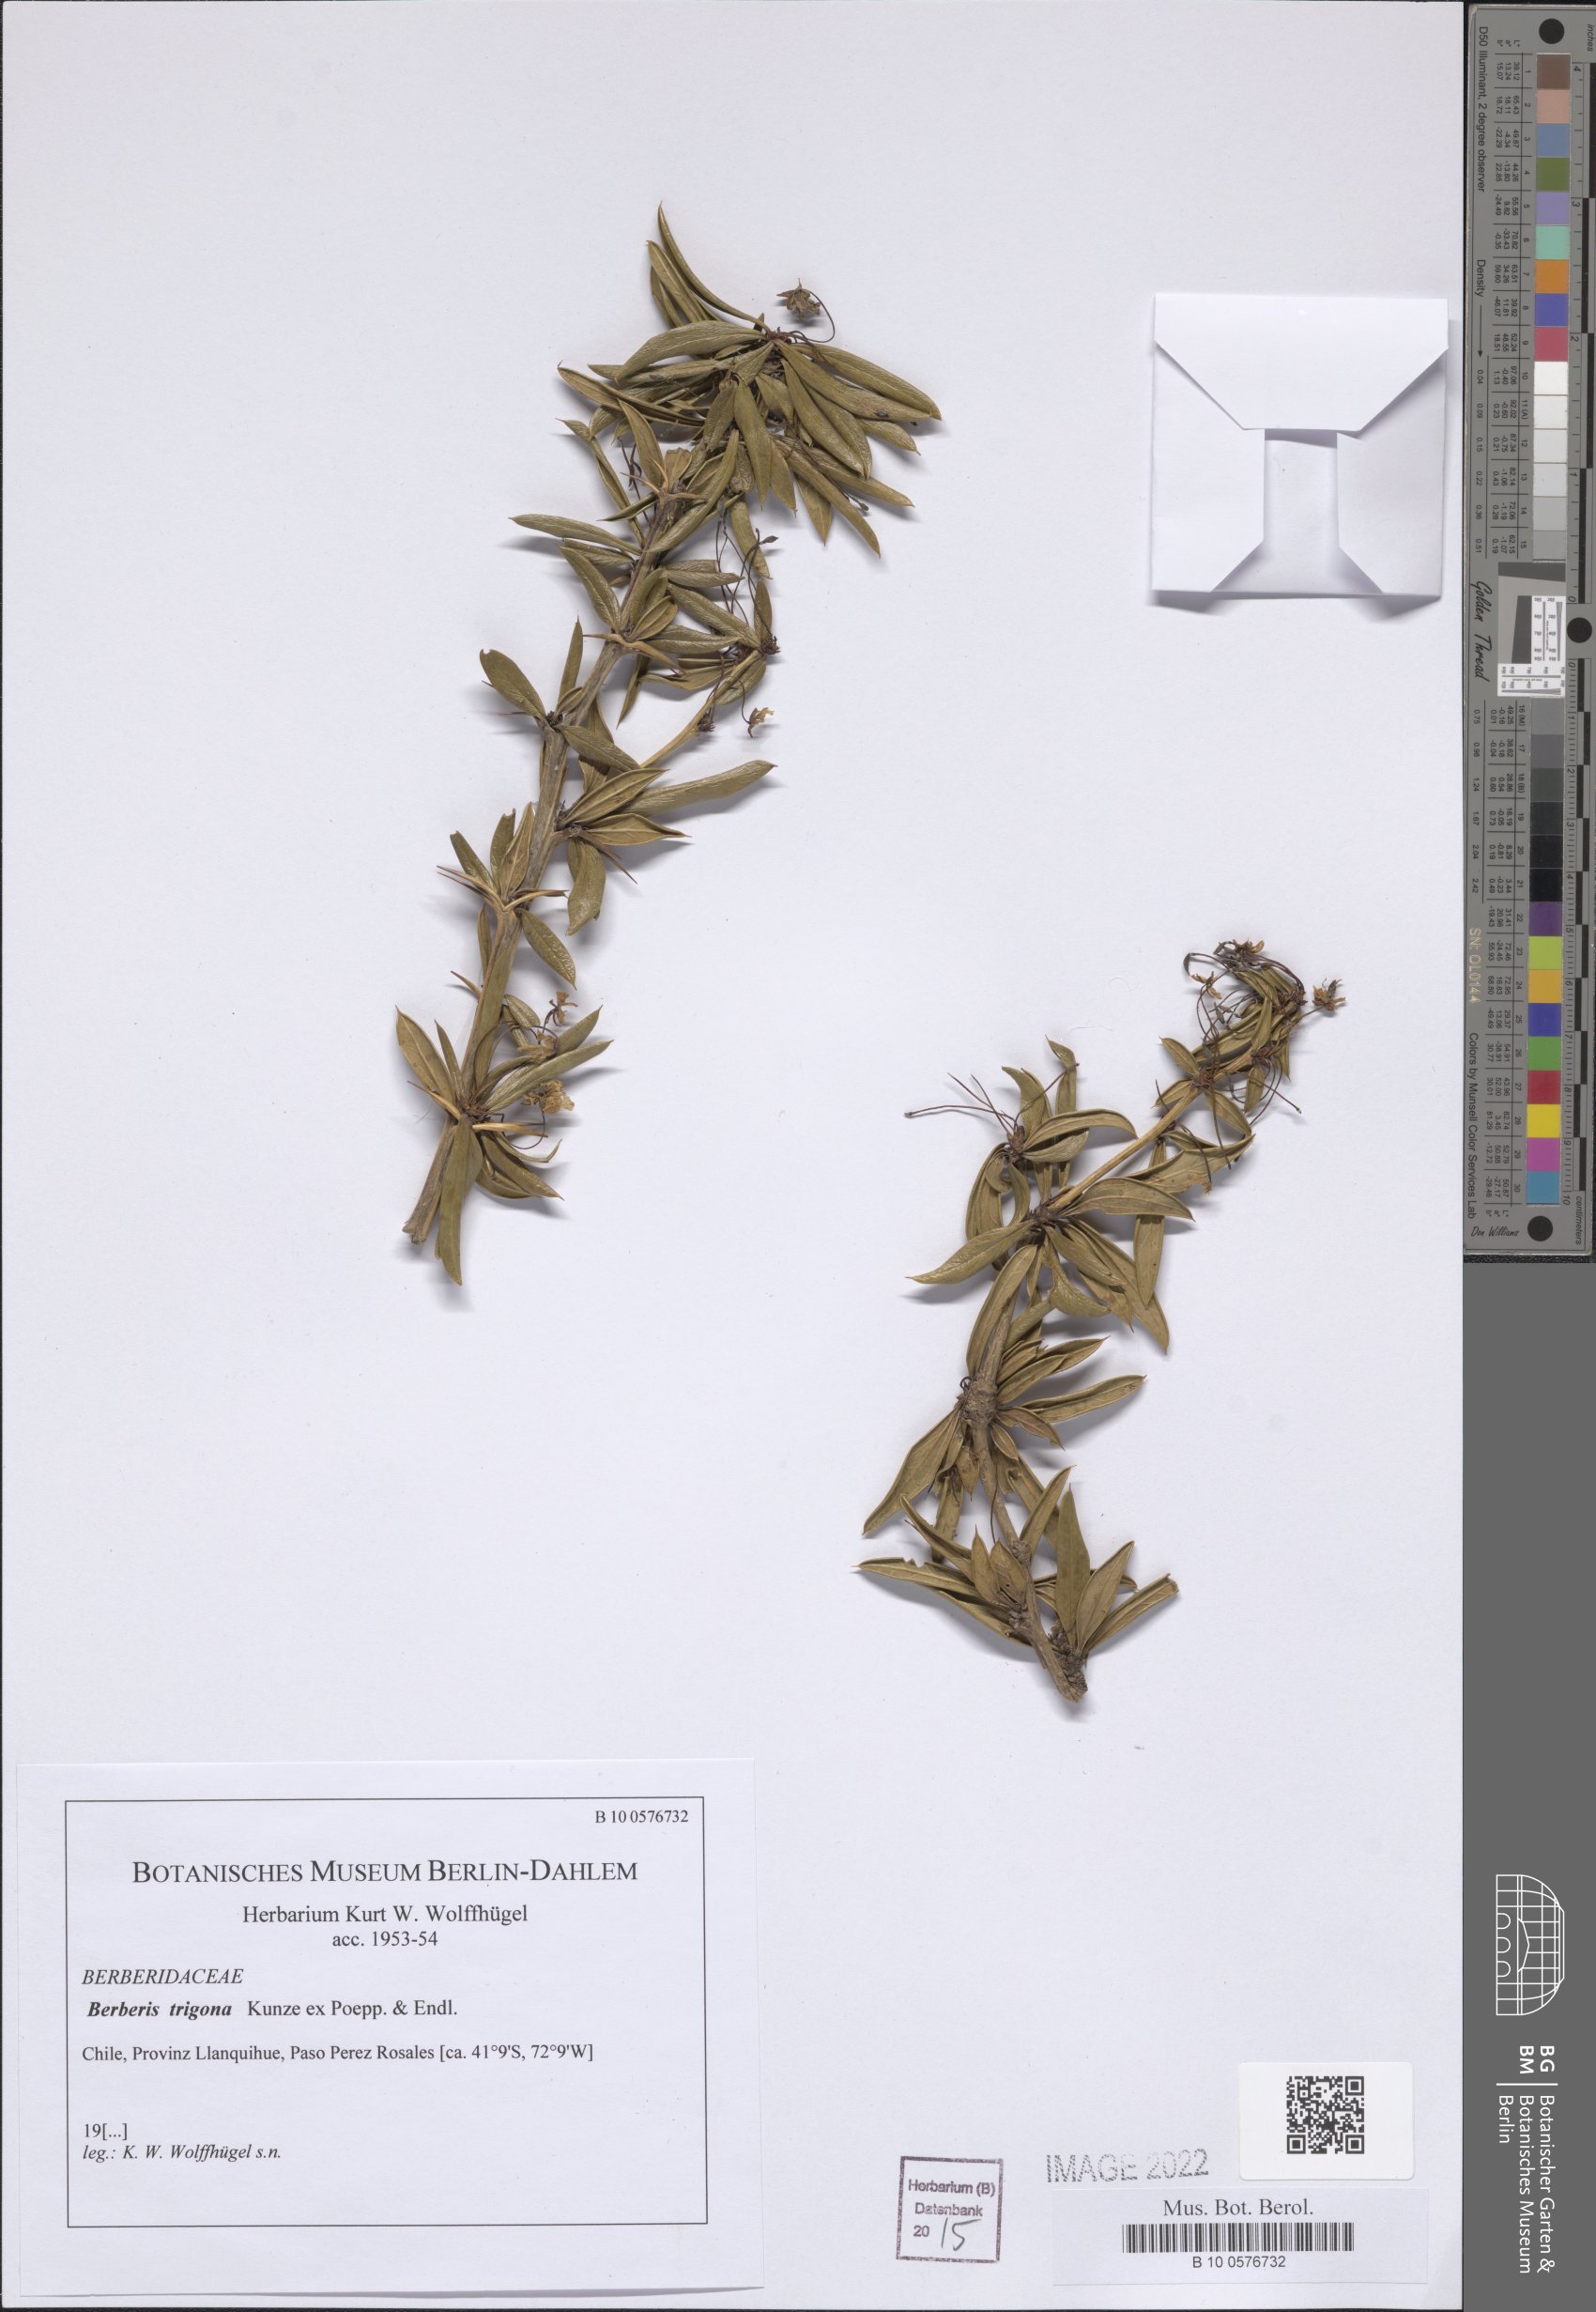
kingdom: Plantae
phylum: Tracheophyta
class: Magnoliopsida
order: Ranunculales
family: Berberidaceae
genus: Berberis
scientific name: Berberis trigona
